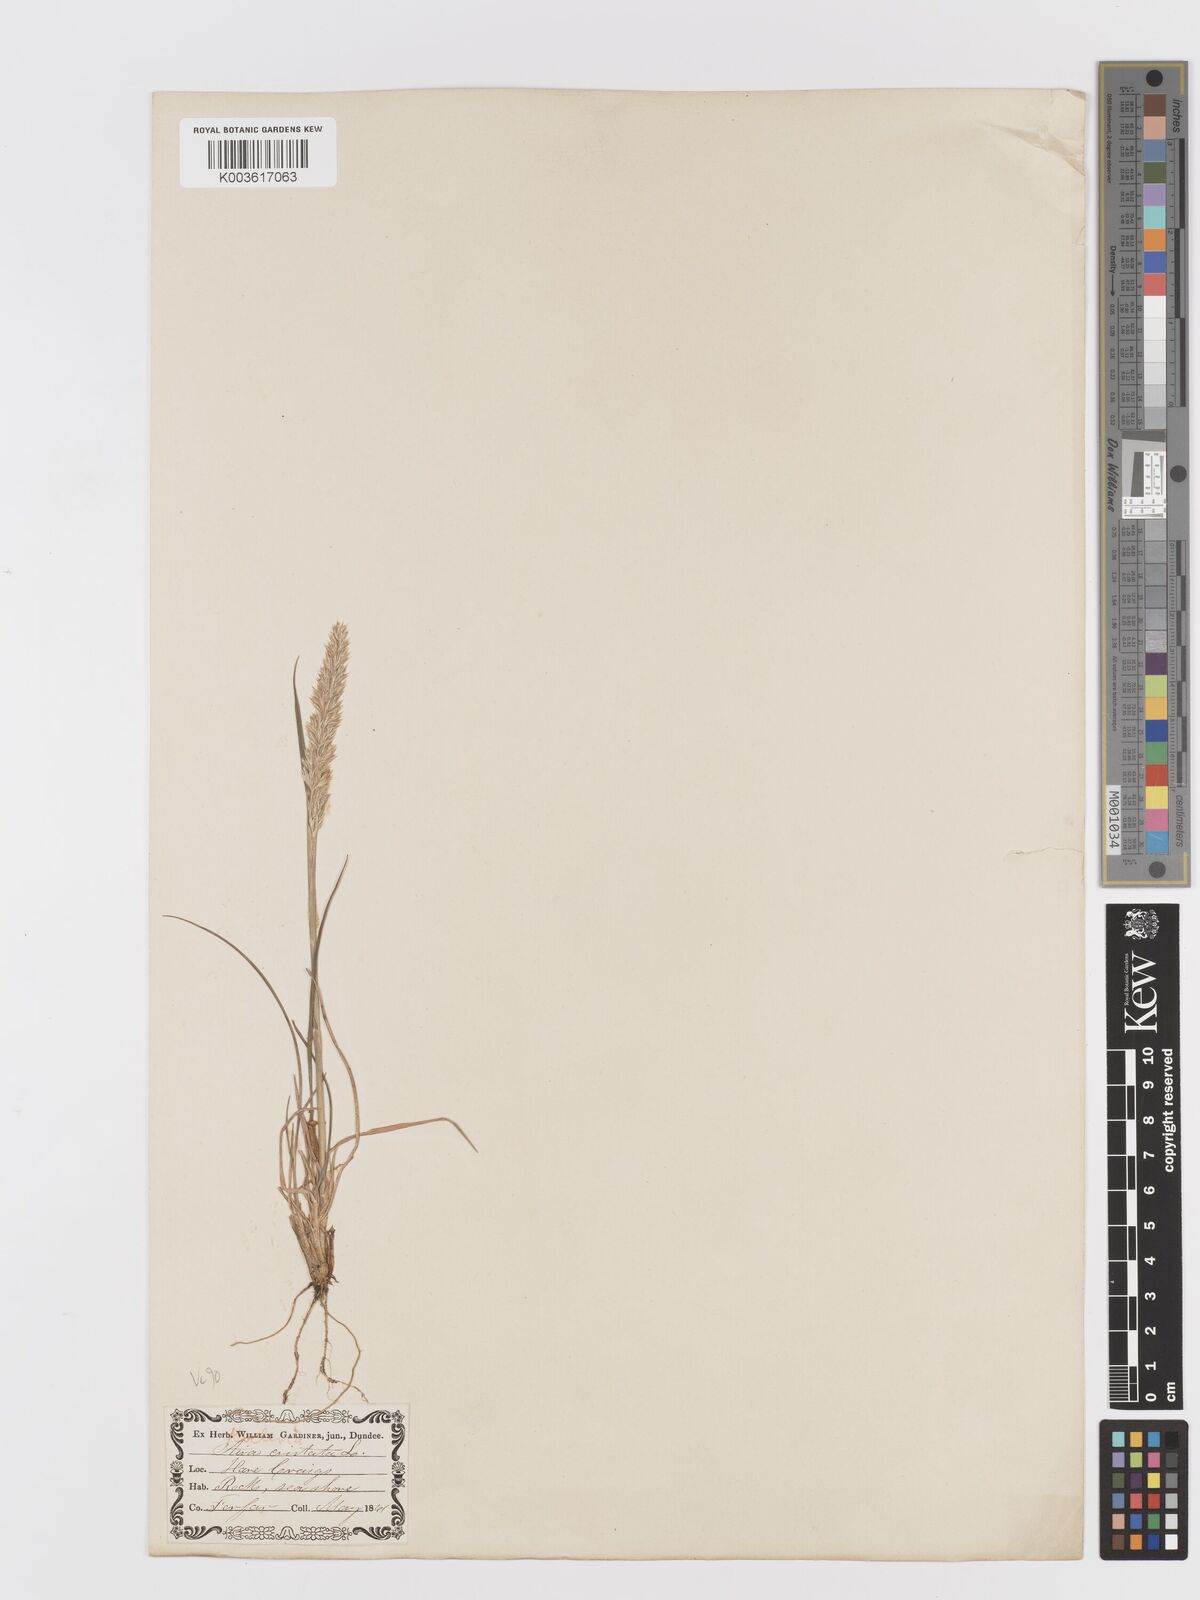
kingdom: Plantae
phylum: Tracheophyta
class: Liliopsida
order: Poales
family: Poaceae
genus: Koeleria
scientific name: Koeleria macrantha
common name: Crested hair-grass
